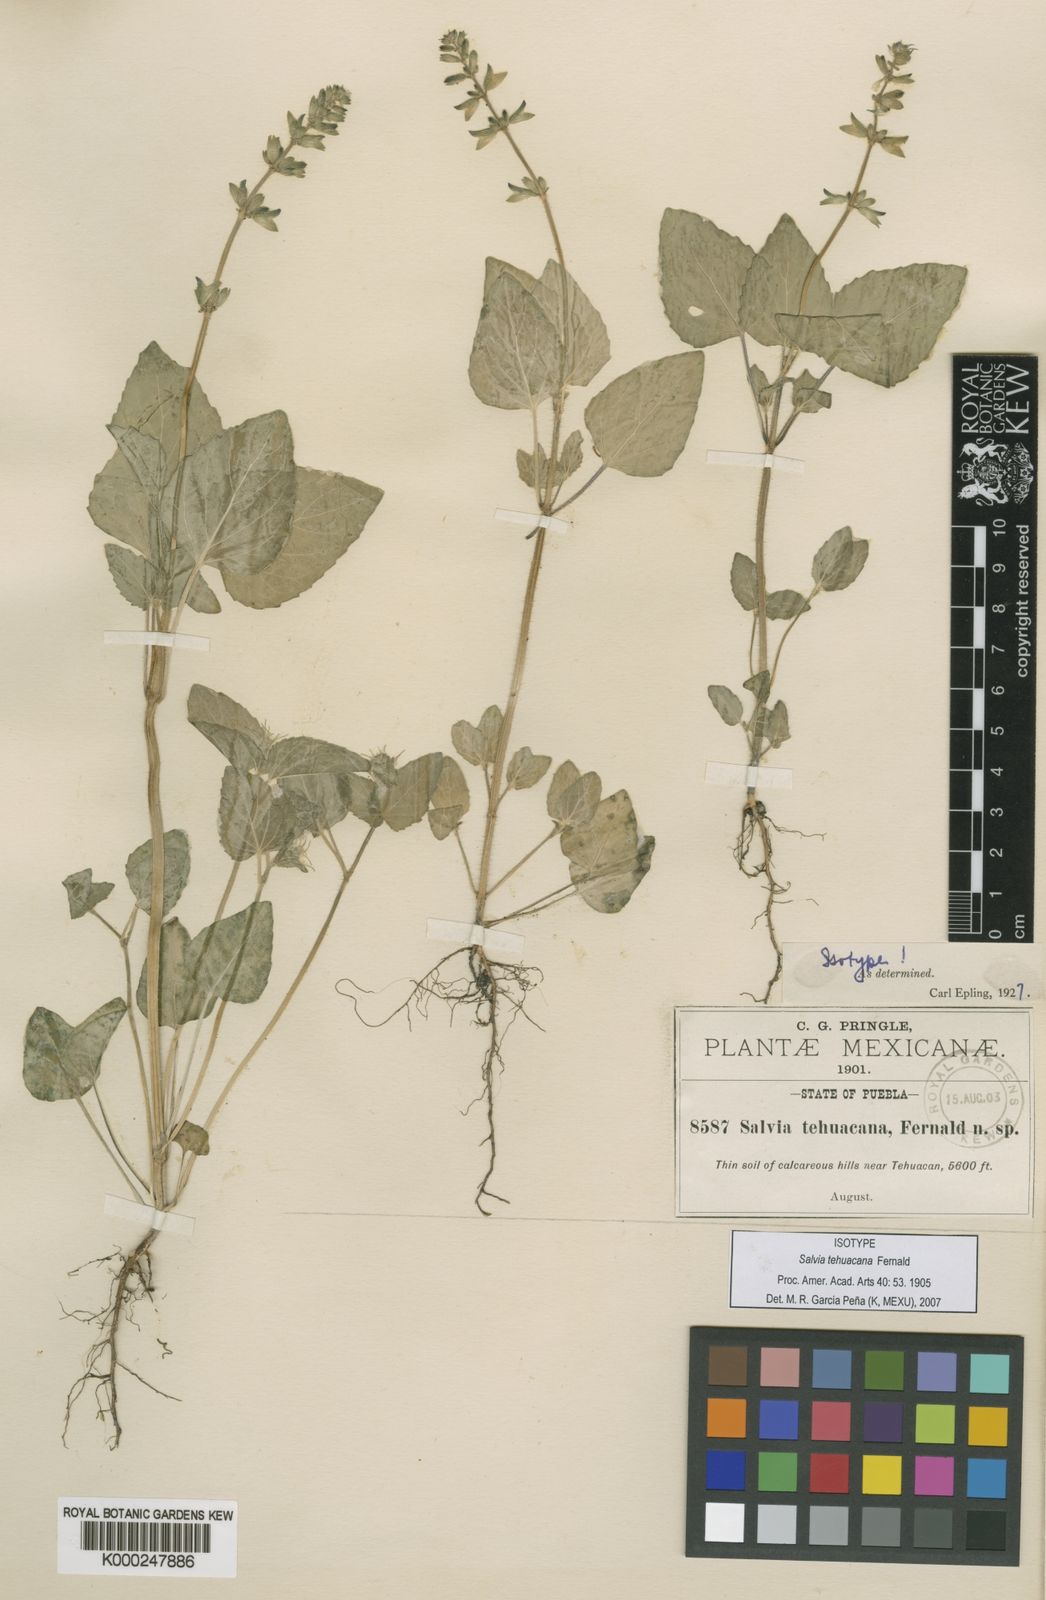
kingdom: Plantae
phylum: Tracheophyta
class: Magnoliopsida
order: Lamiales
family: Lamiaceae
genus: Salvia
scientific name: Salvia tehuacana
